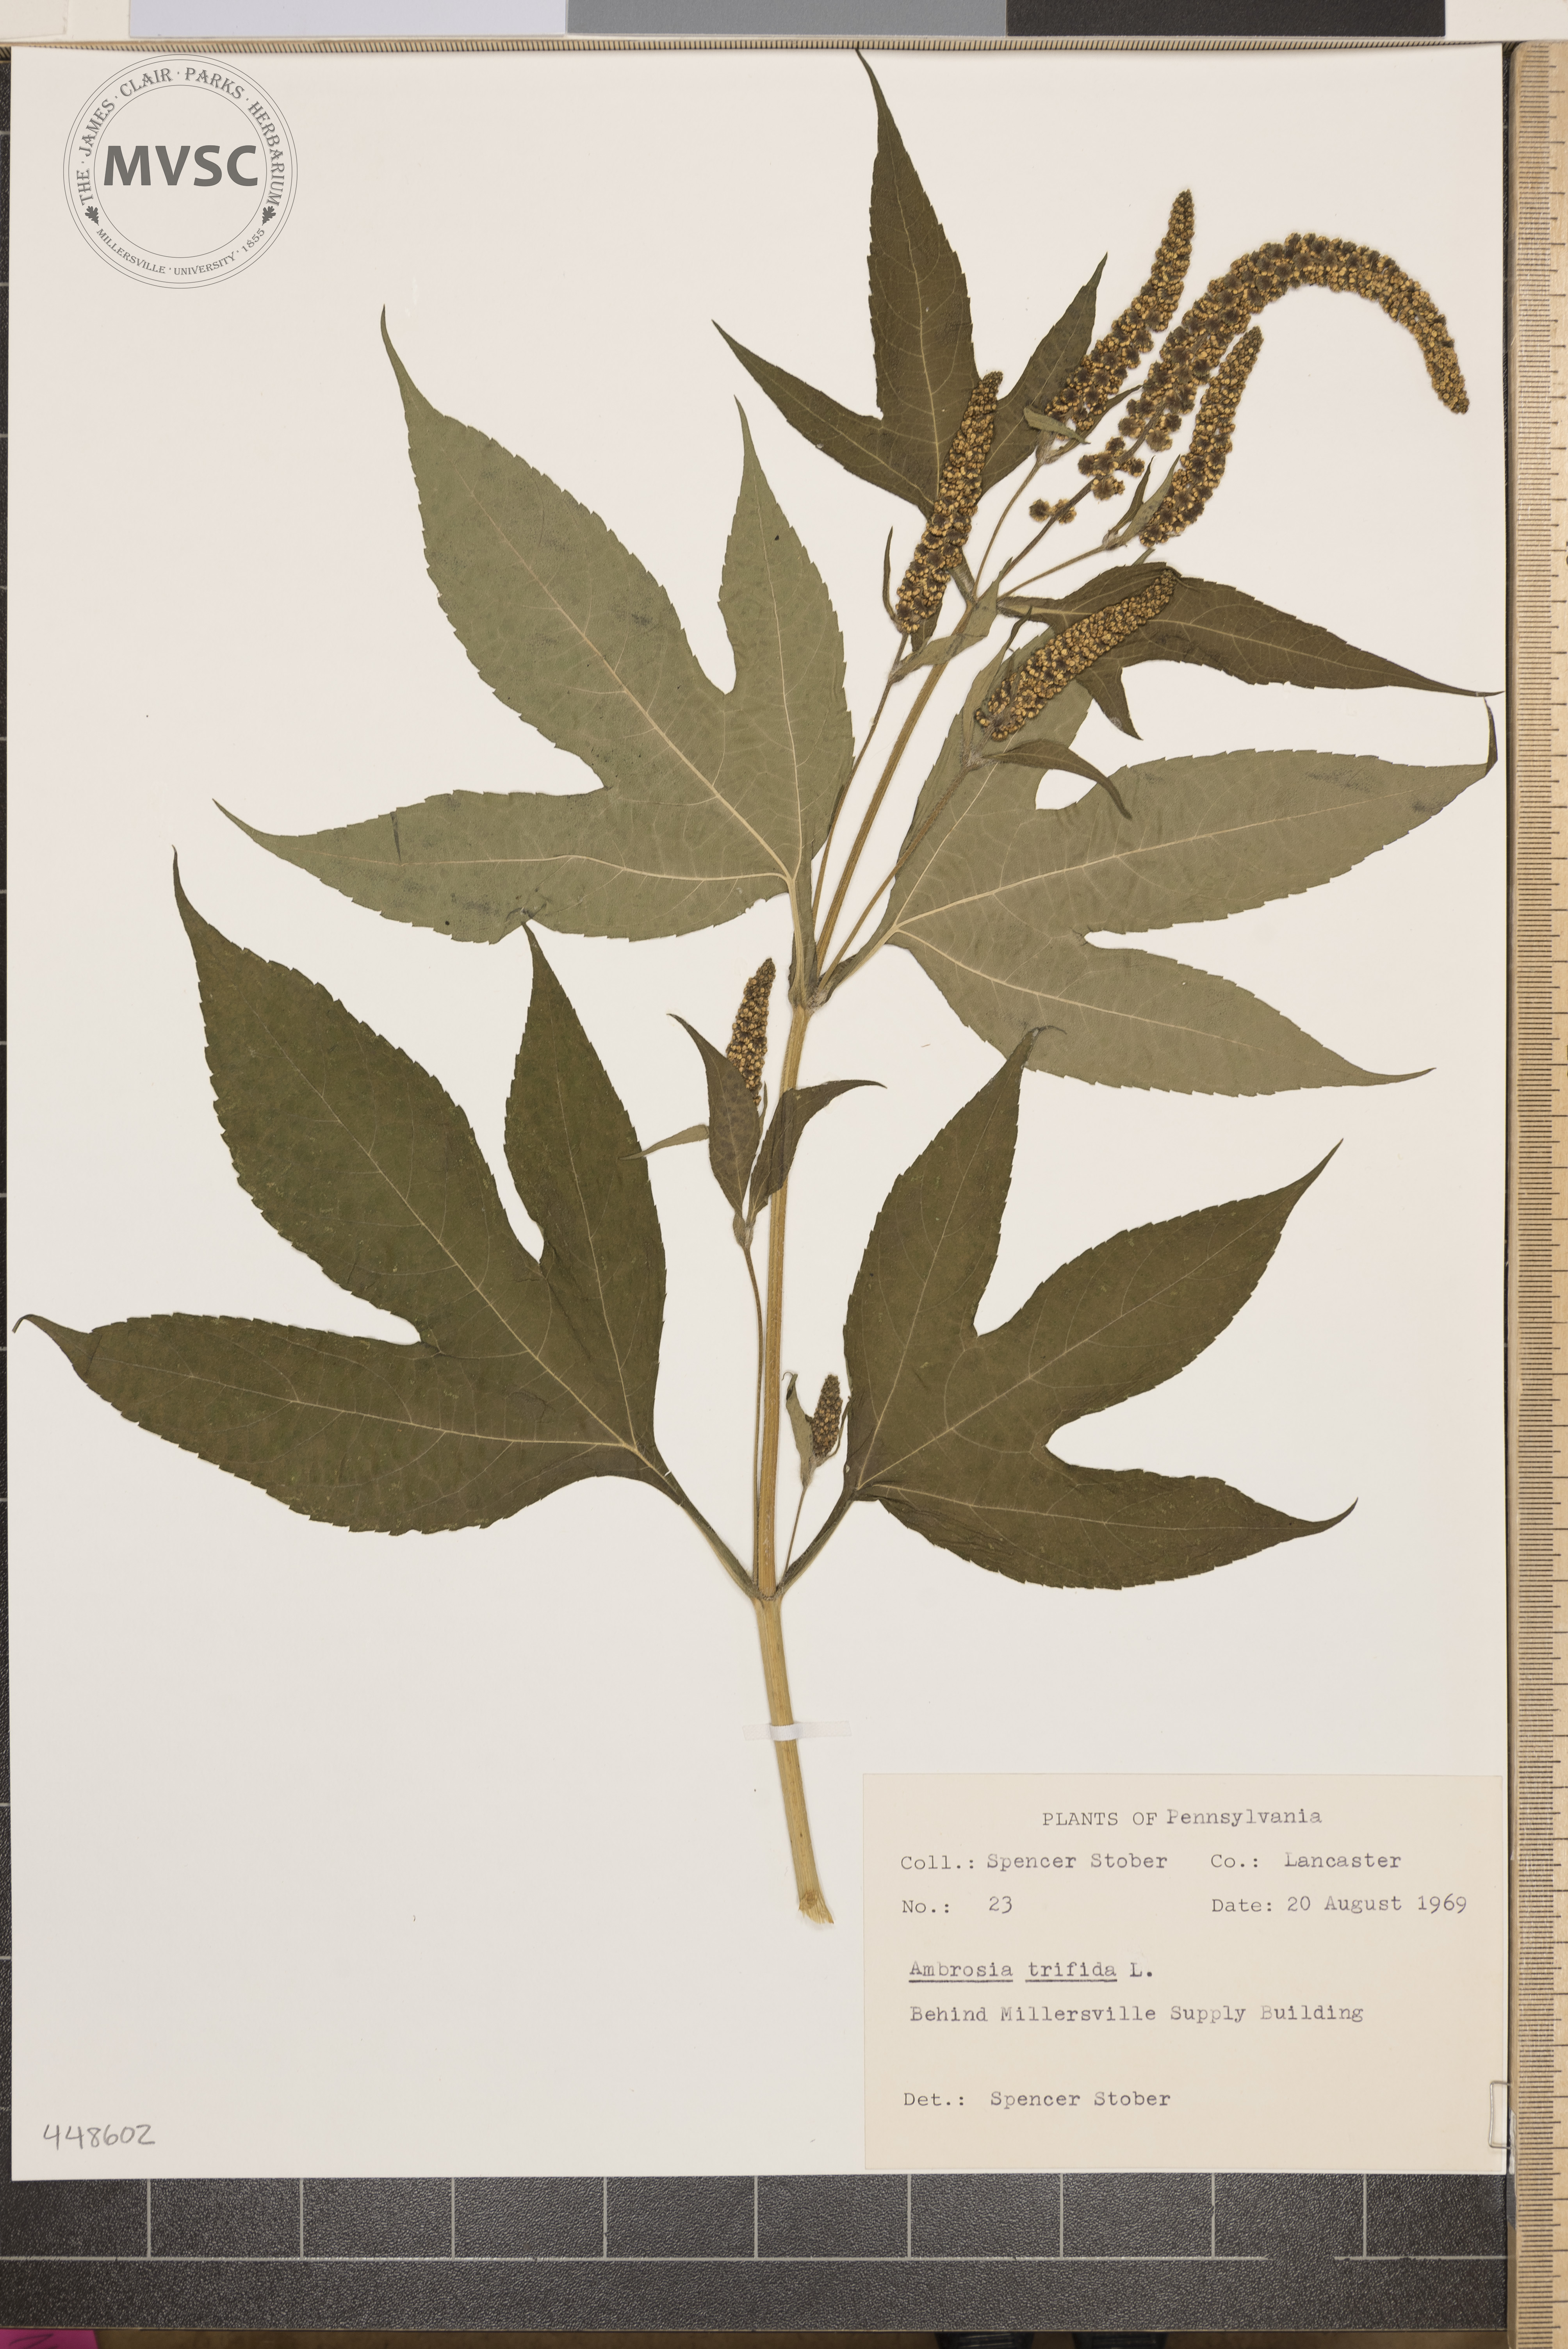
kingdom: Plantae
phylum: Tracheophyta
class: Magnoliopsida
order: Asterales
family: Asteraceae
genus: Ambrosia
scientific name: Ambrosia trifida
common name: Giant ragweed
